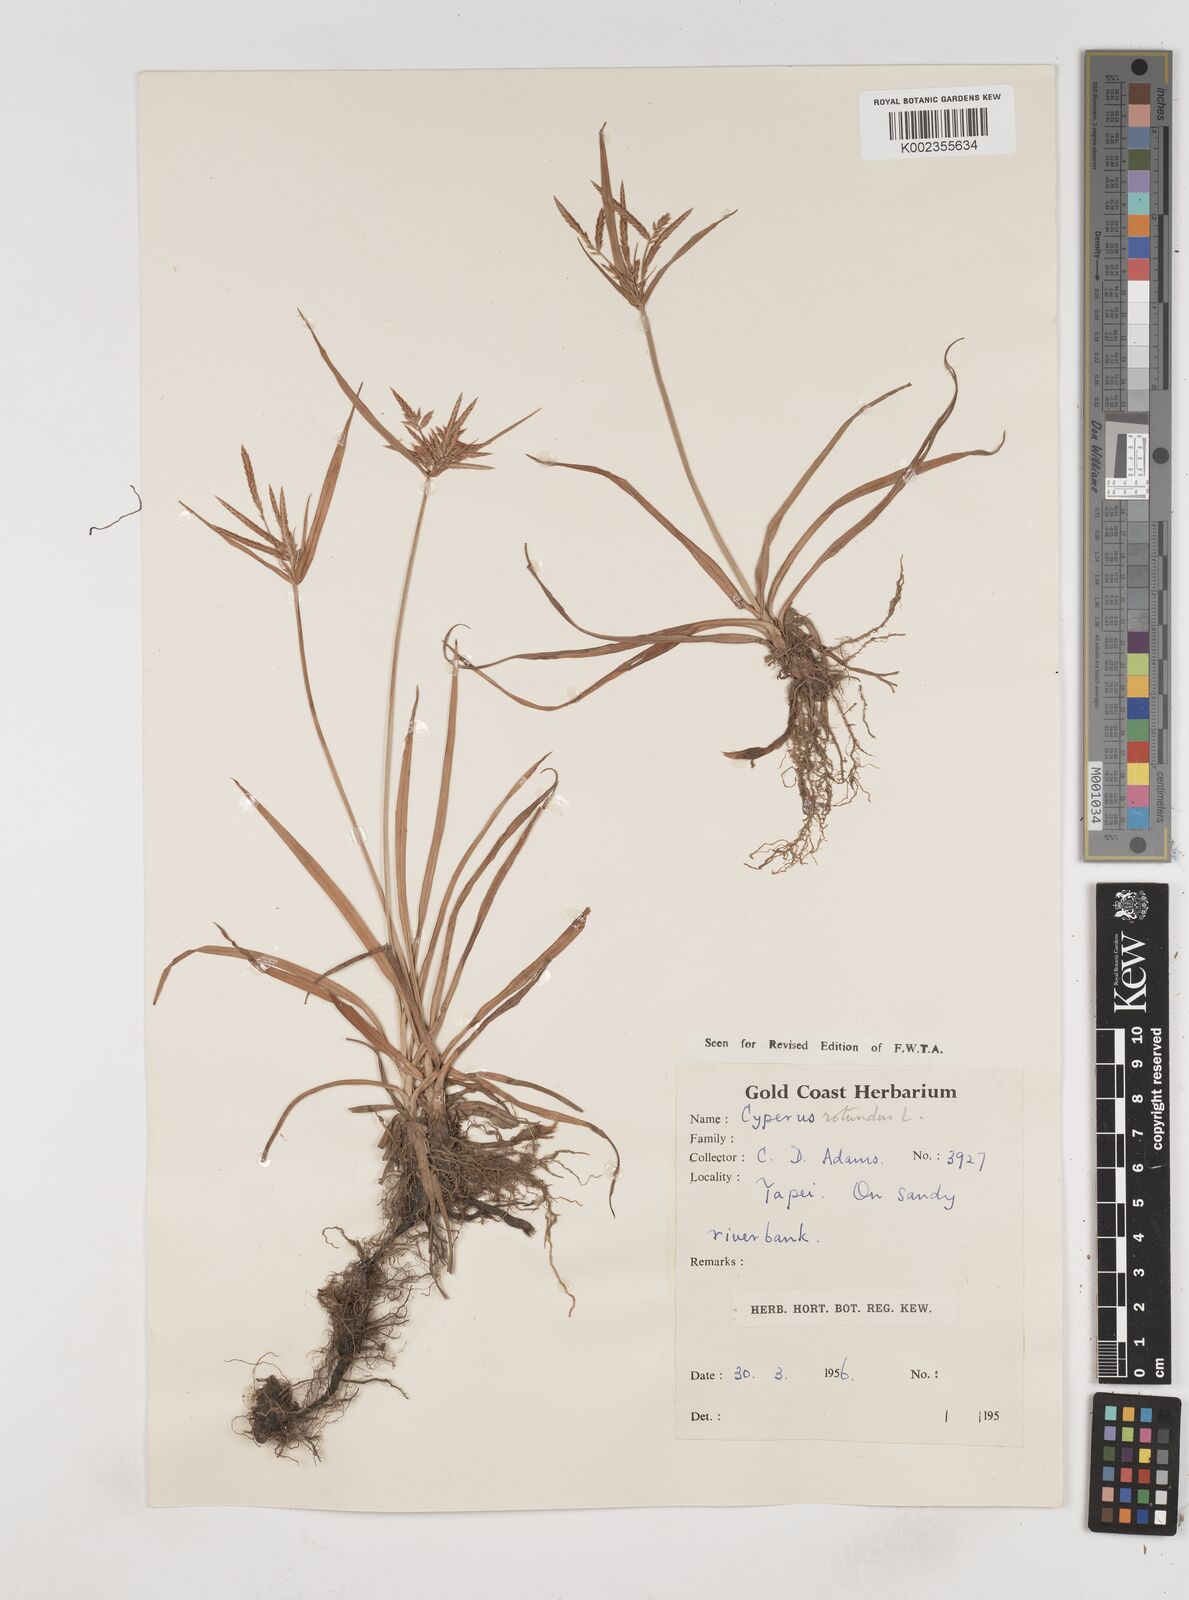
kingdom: Plantae
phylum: Tracheophyta
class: Liliopsida
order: Poales
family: Cyperaceae
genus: Cyperus
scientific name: Cyperus rotundus
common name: Nutgrass
